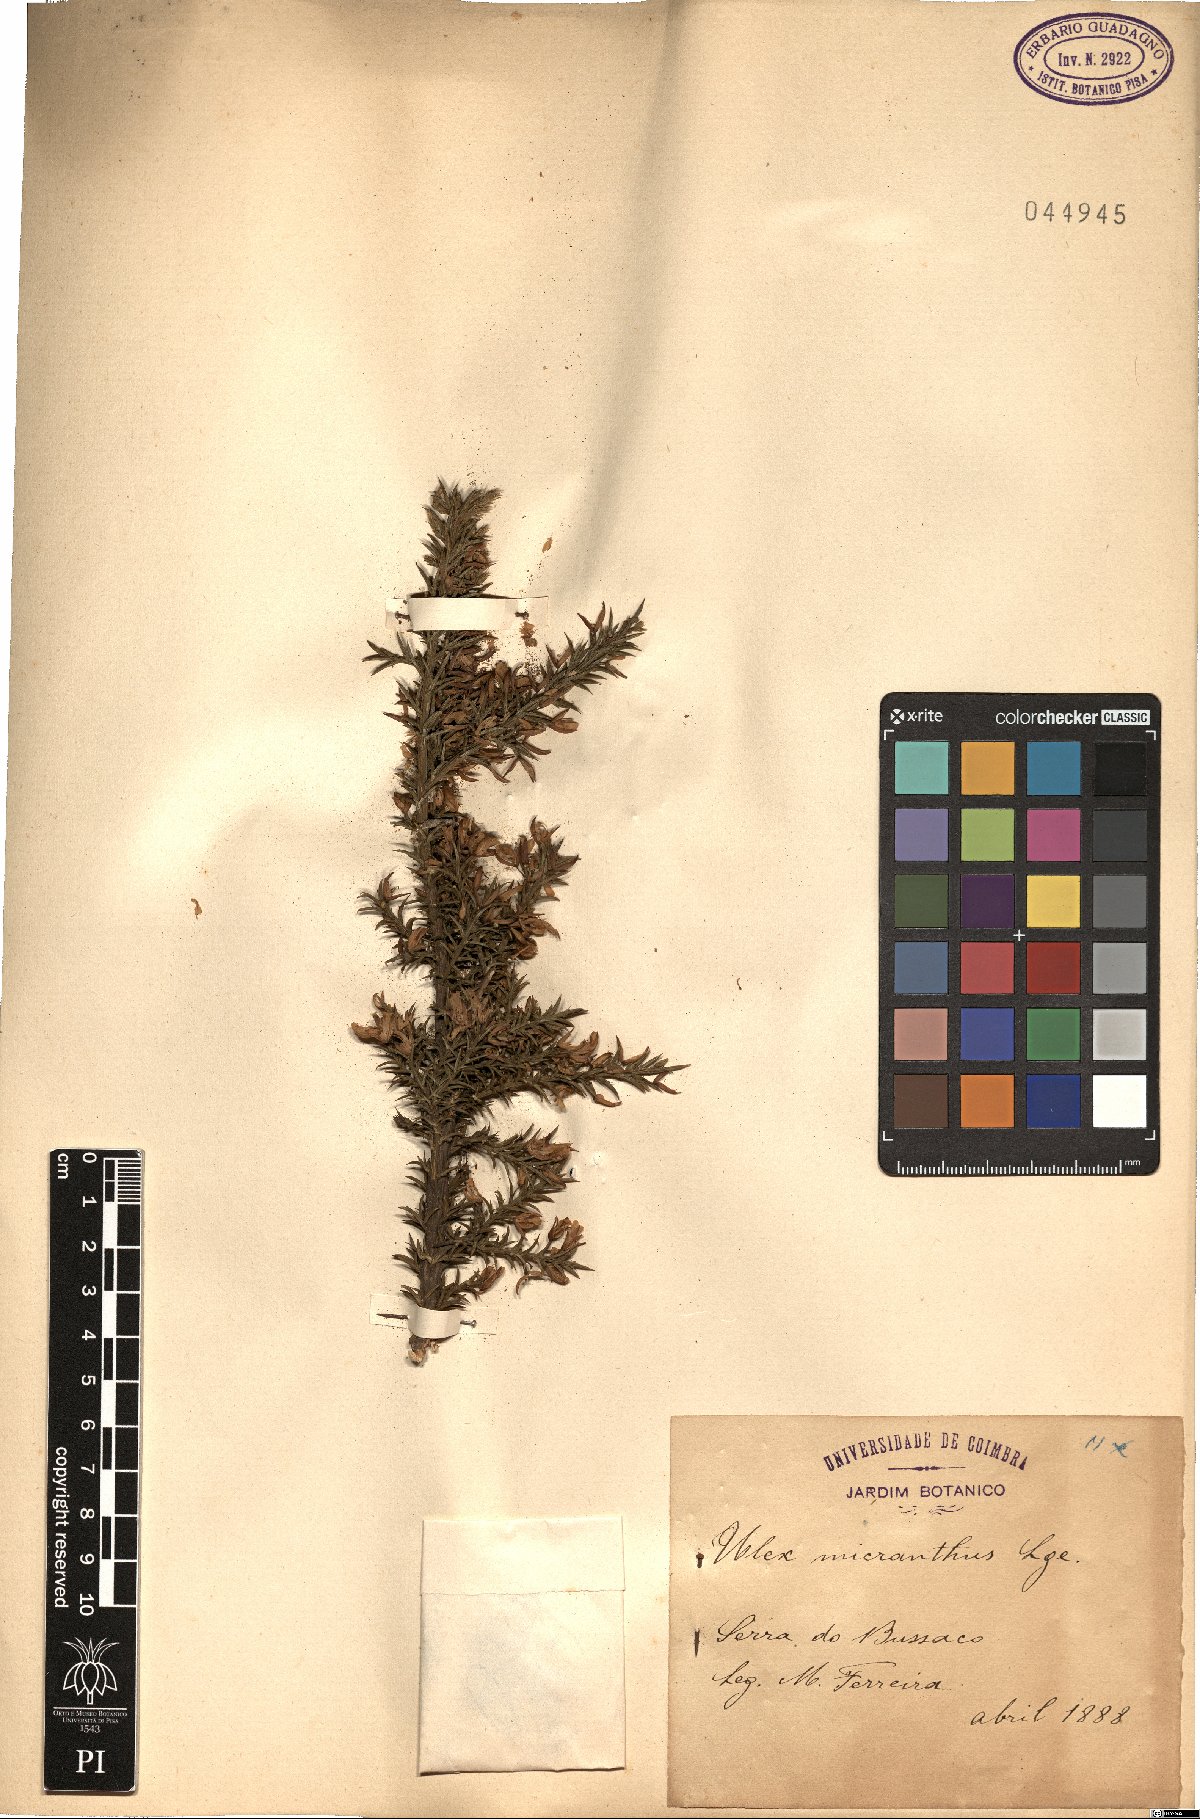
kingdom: Plantae
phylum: Tracheophyta
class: Magnoliopsida
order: Fabales
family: Fabaceae
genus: Ulex
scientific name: Ulex micranthus
